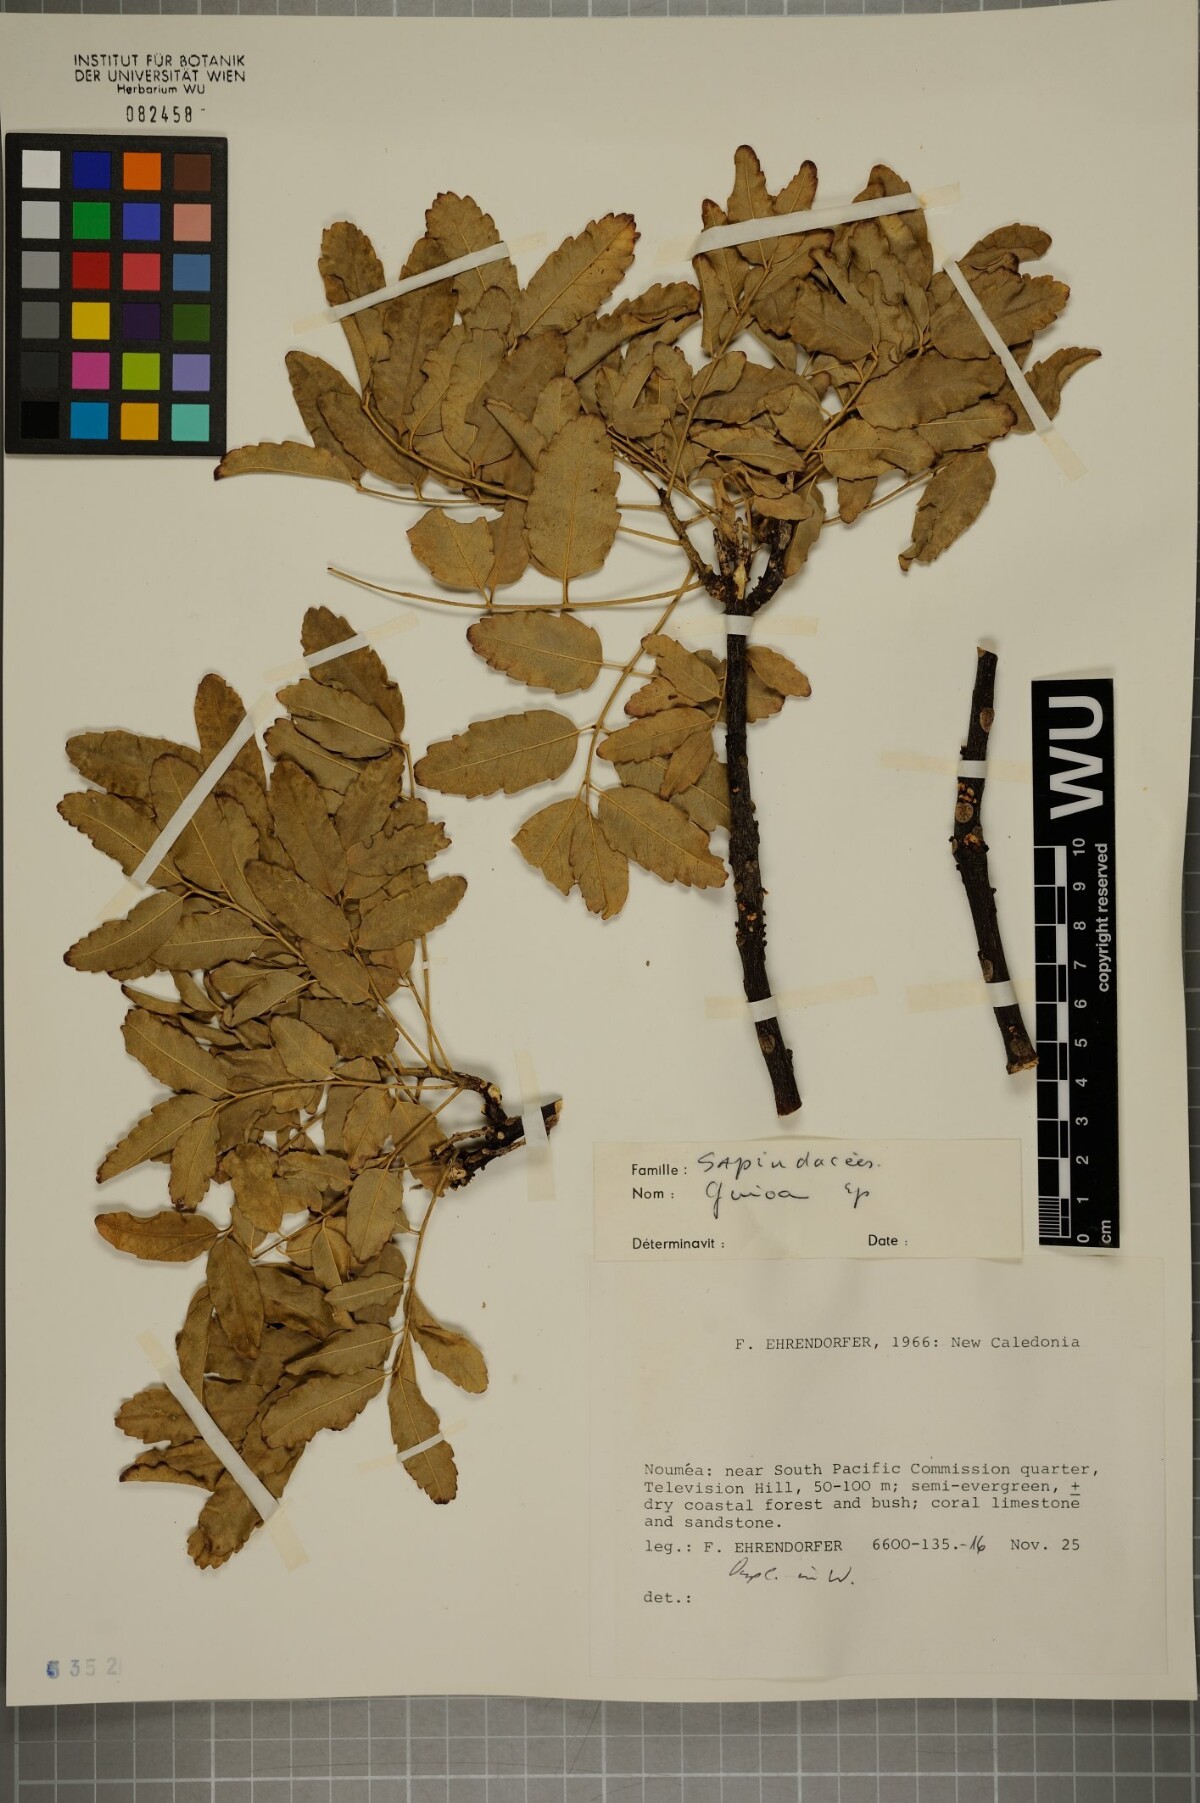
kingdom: Plantae
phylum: Tracheophyta
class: Magnoliopsida
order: Sapindales
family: Sapindaceae
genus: Guioa
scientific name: Guioa
